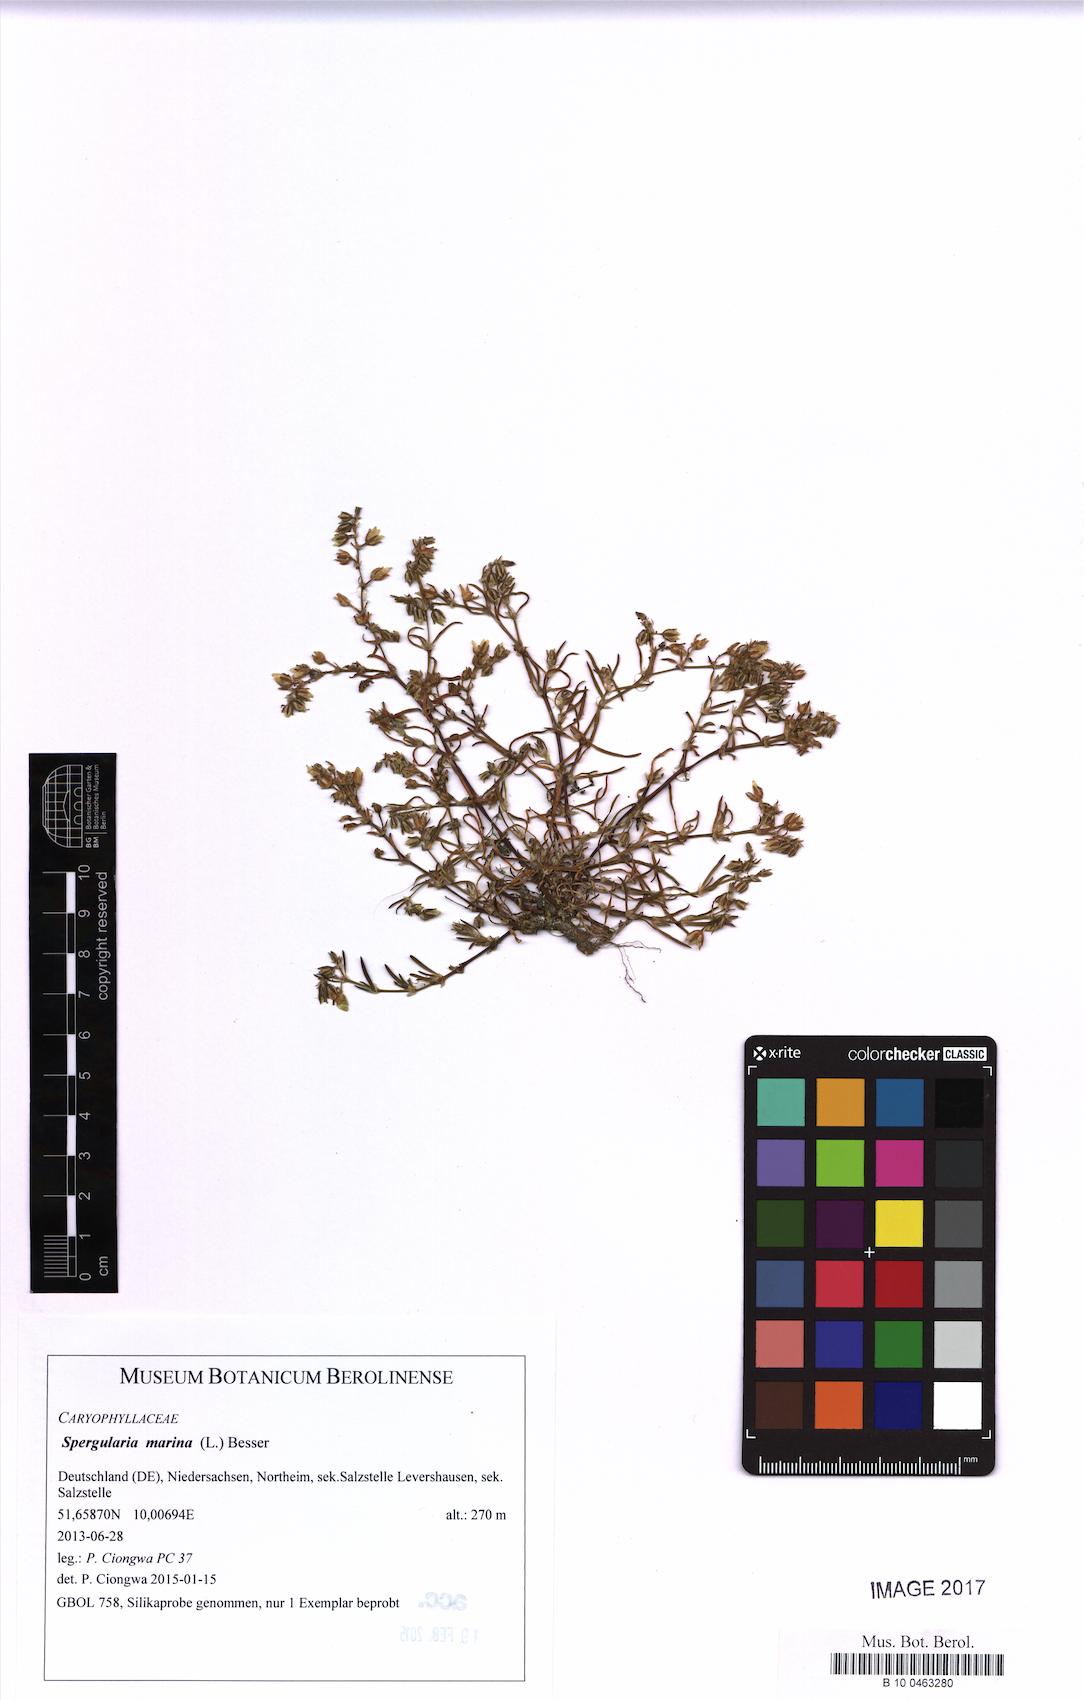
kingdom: Plantae
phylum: Tracheophyta
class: Magnoliopsida
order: Caryophyllales
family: Caryophyllaceae
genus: Spergularia
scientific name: Spergularia marina
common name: Lesser sea-spurrey
